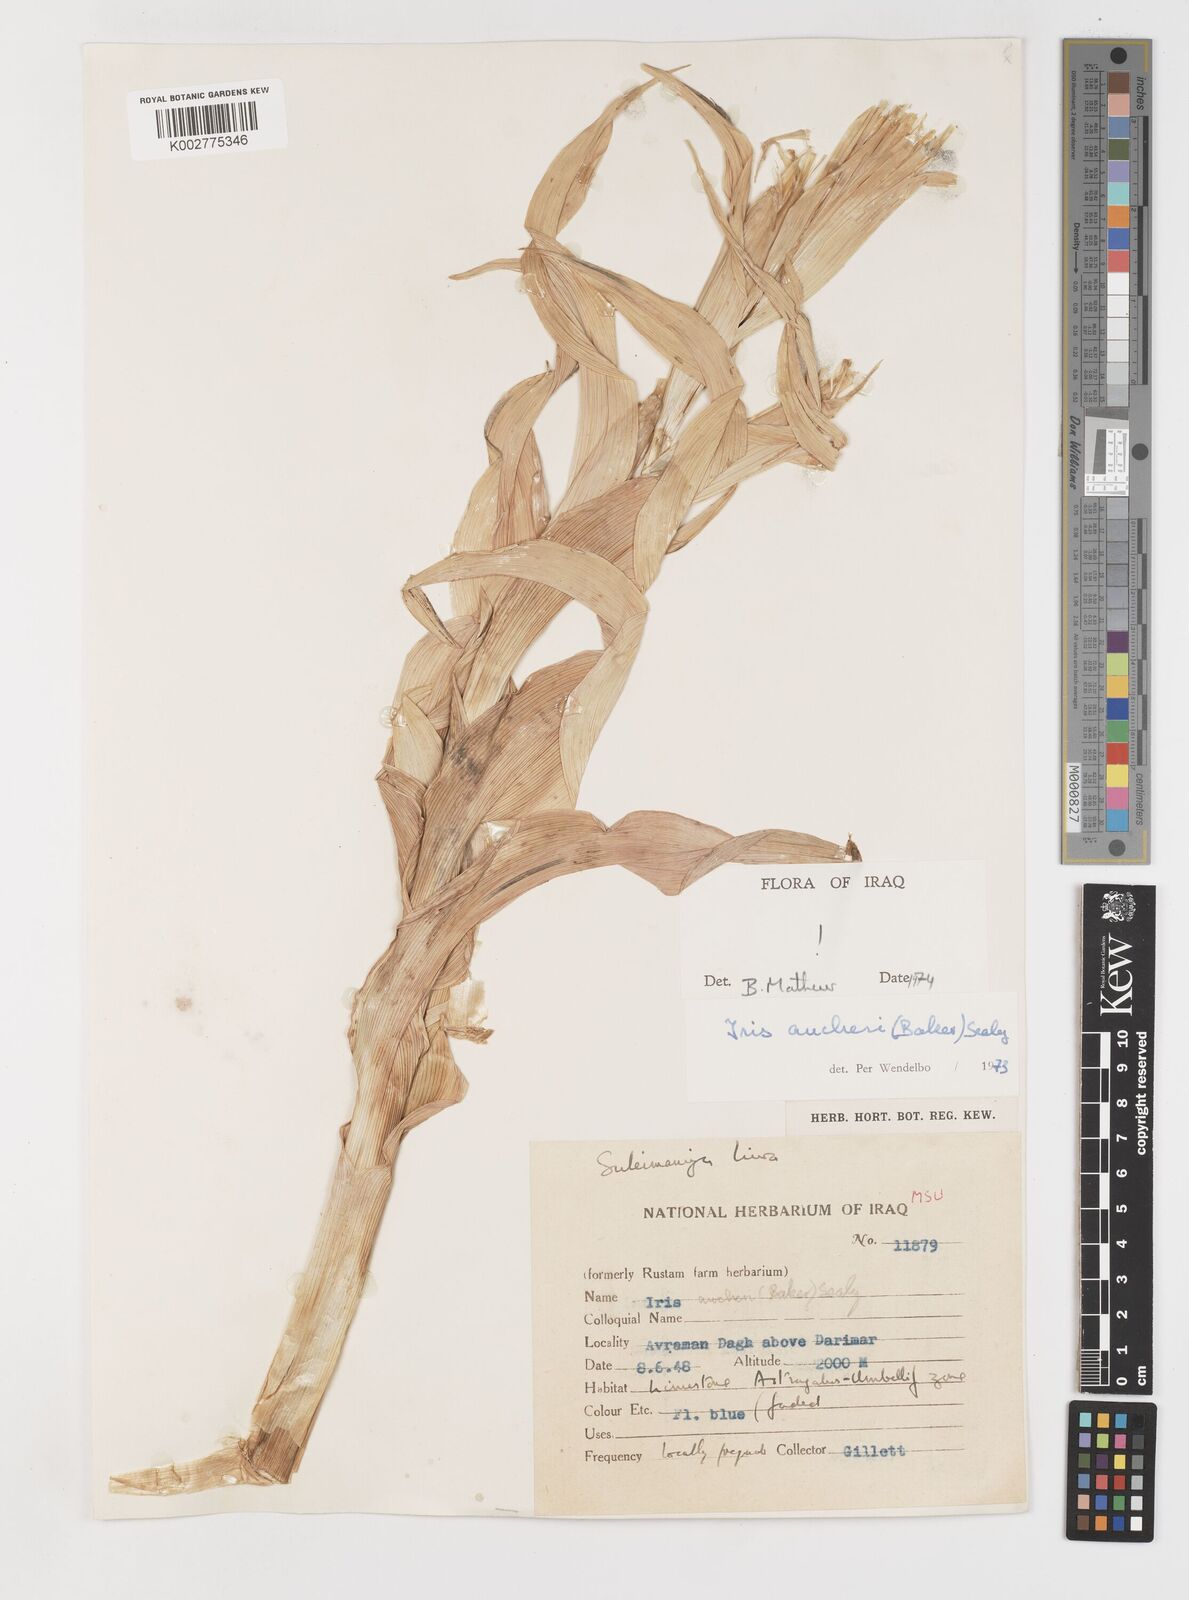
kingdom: Plantae
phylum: Tracheophyta
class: Liliopsida
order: Asparagales
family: Iridaceae
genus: Iris
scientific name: Iris aucheri
